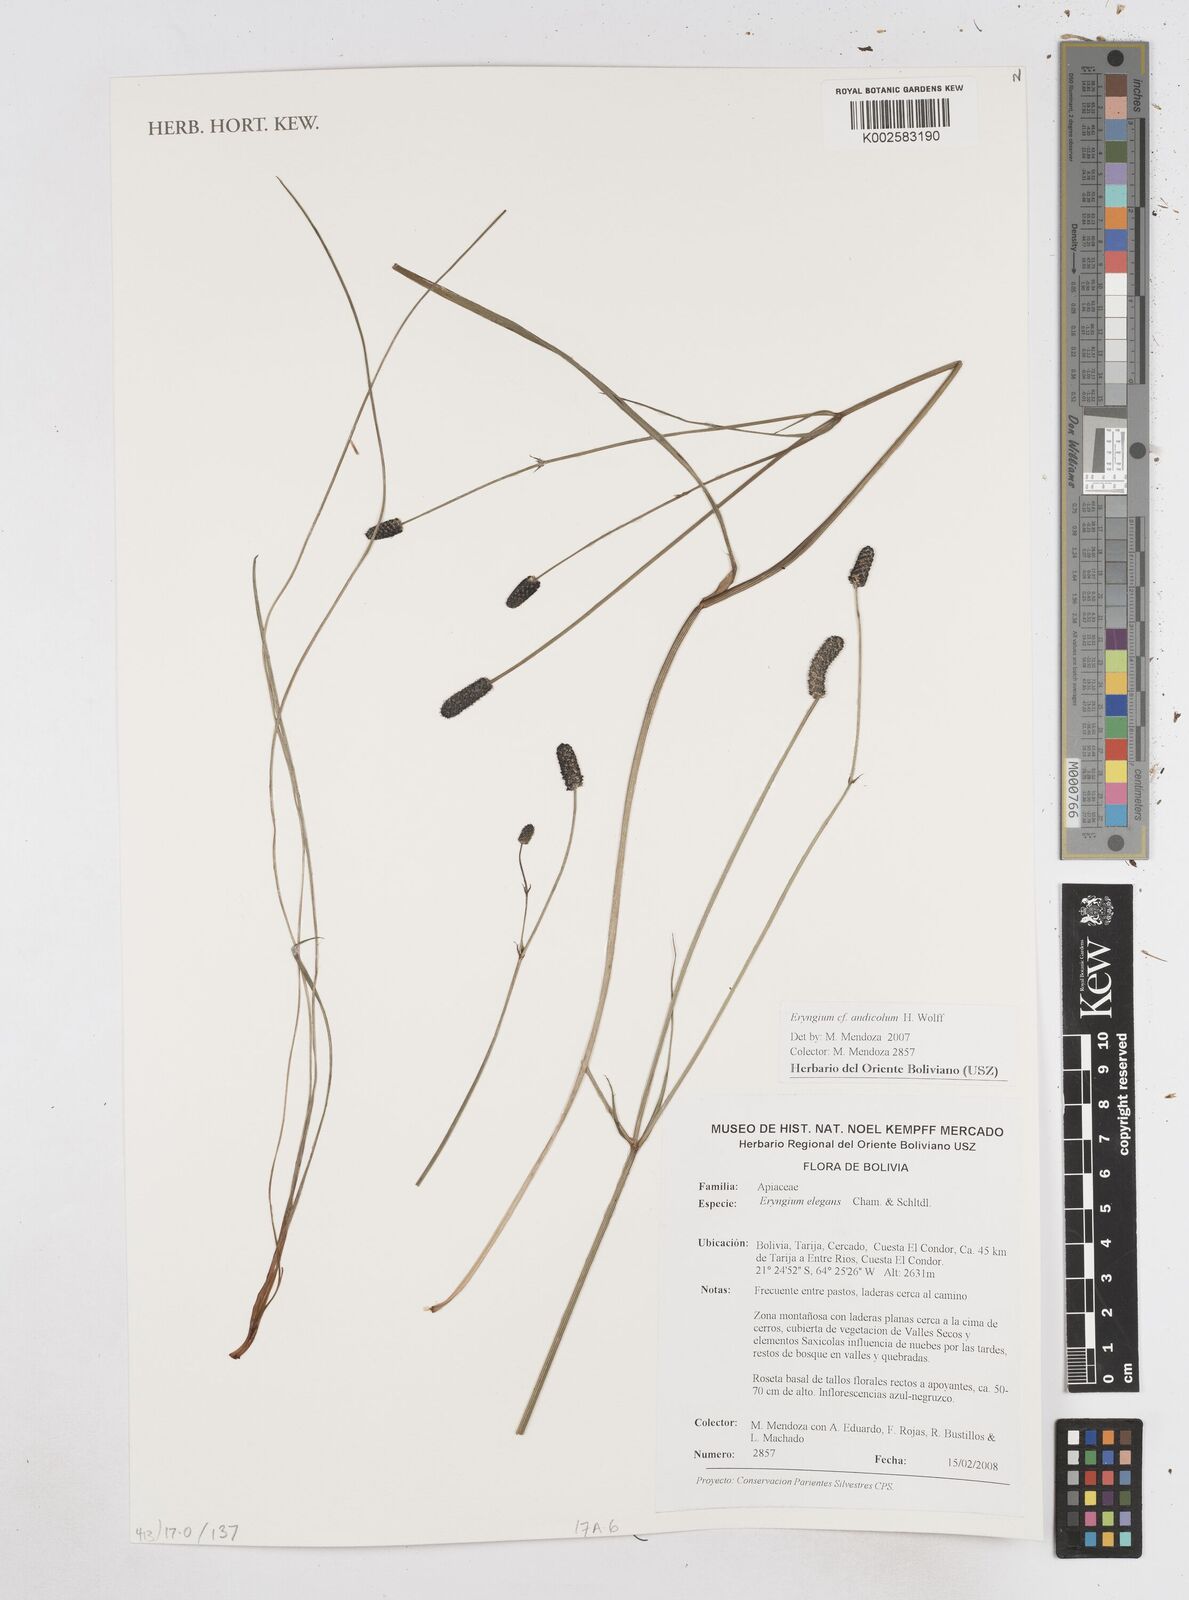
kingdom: Plantae
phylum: Tracheophyta
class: Magnoliopsida
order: Apiales
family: Apiaceae
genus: Eryngium
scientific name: Eryngium elegans
